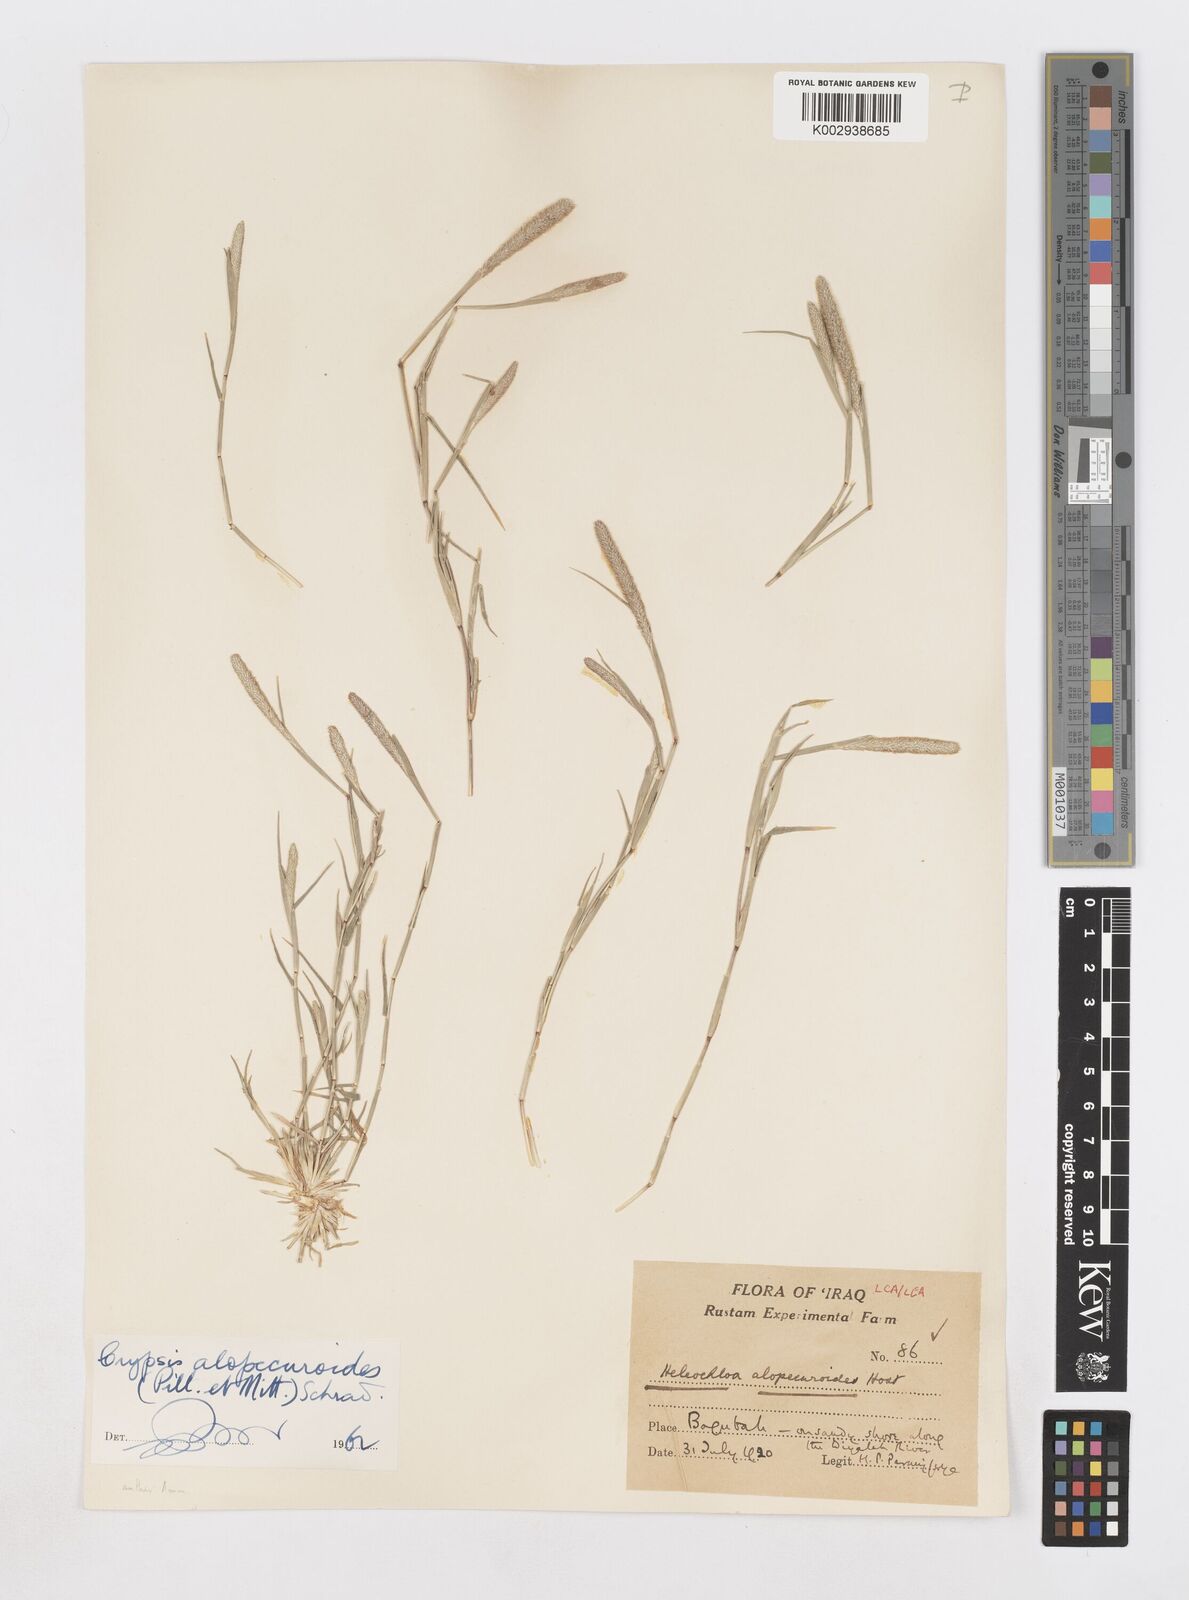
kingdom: Plantae
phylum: Tracheophyta
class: Liliopsida
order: Poales
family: Poaceae
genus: Sporobolus
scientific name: Sporobolus alopecuroides
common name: Foxtail pricklegrass
